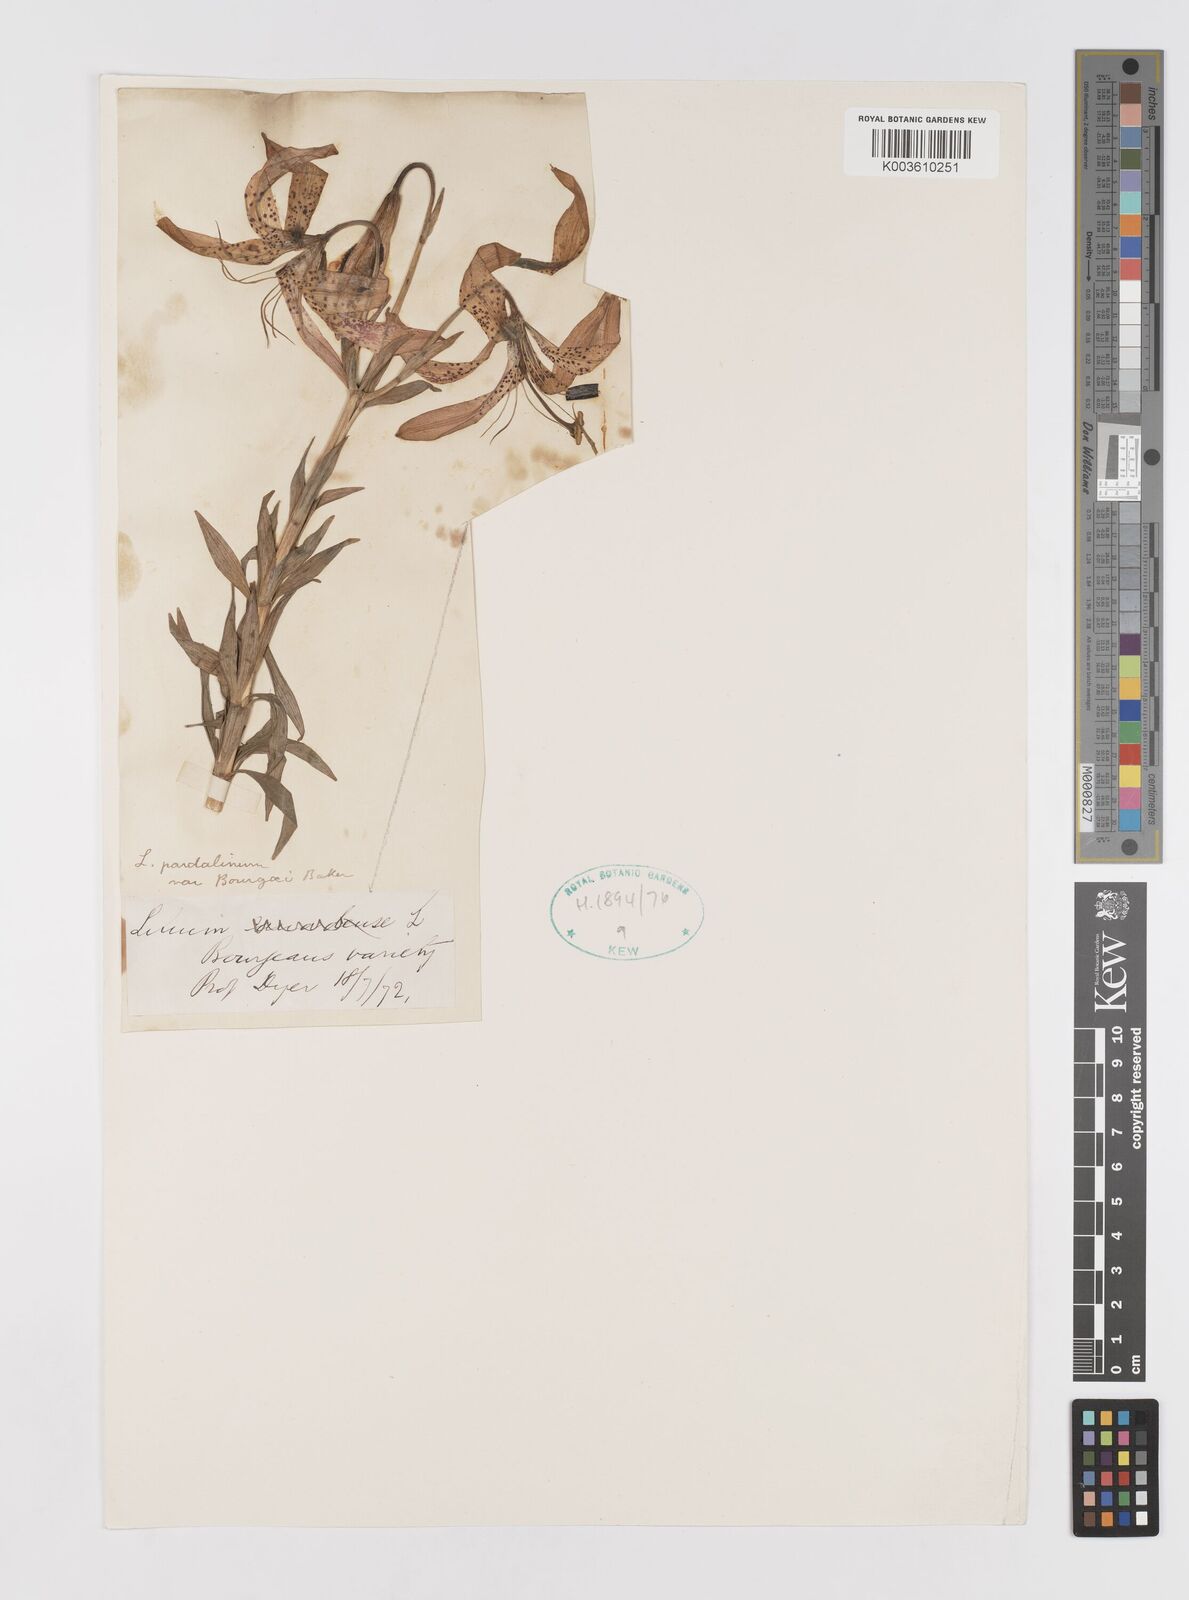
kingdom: Plantae
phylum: Tracheophyta
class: Liliopsida
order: Liliales
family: Liliaceae
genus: Lilium
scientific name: Lilium pardalinum
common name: Panther lily
